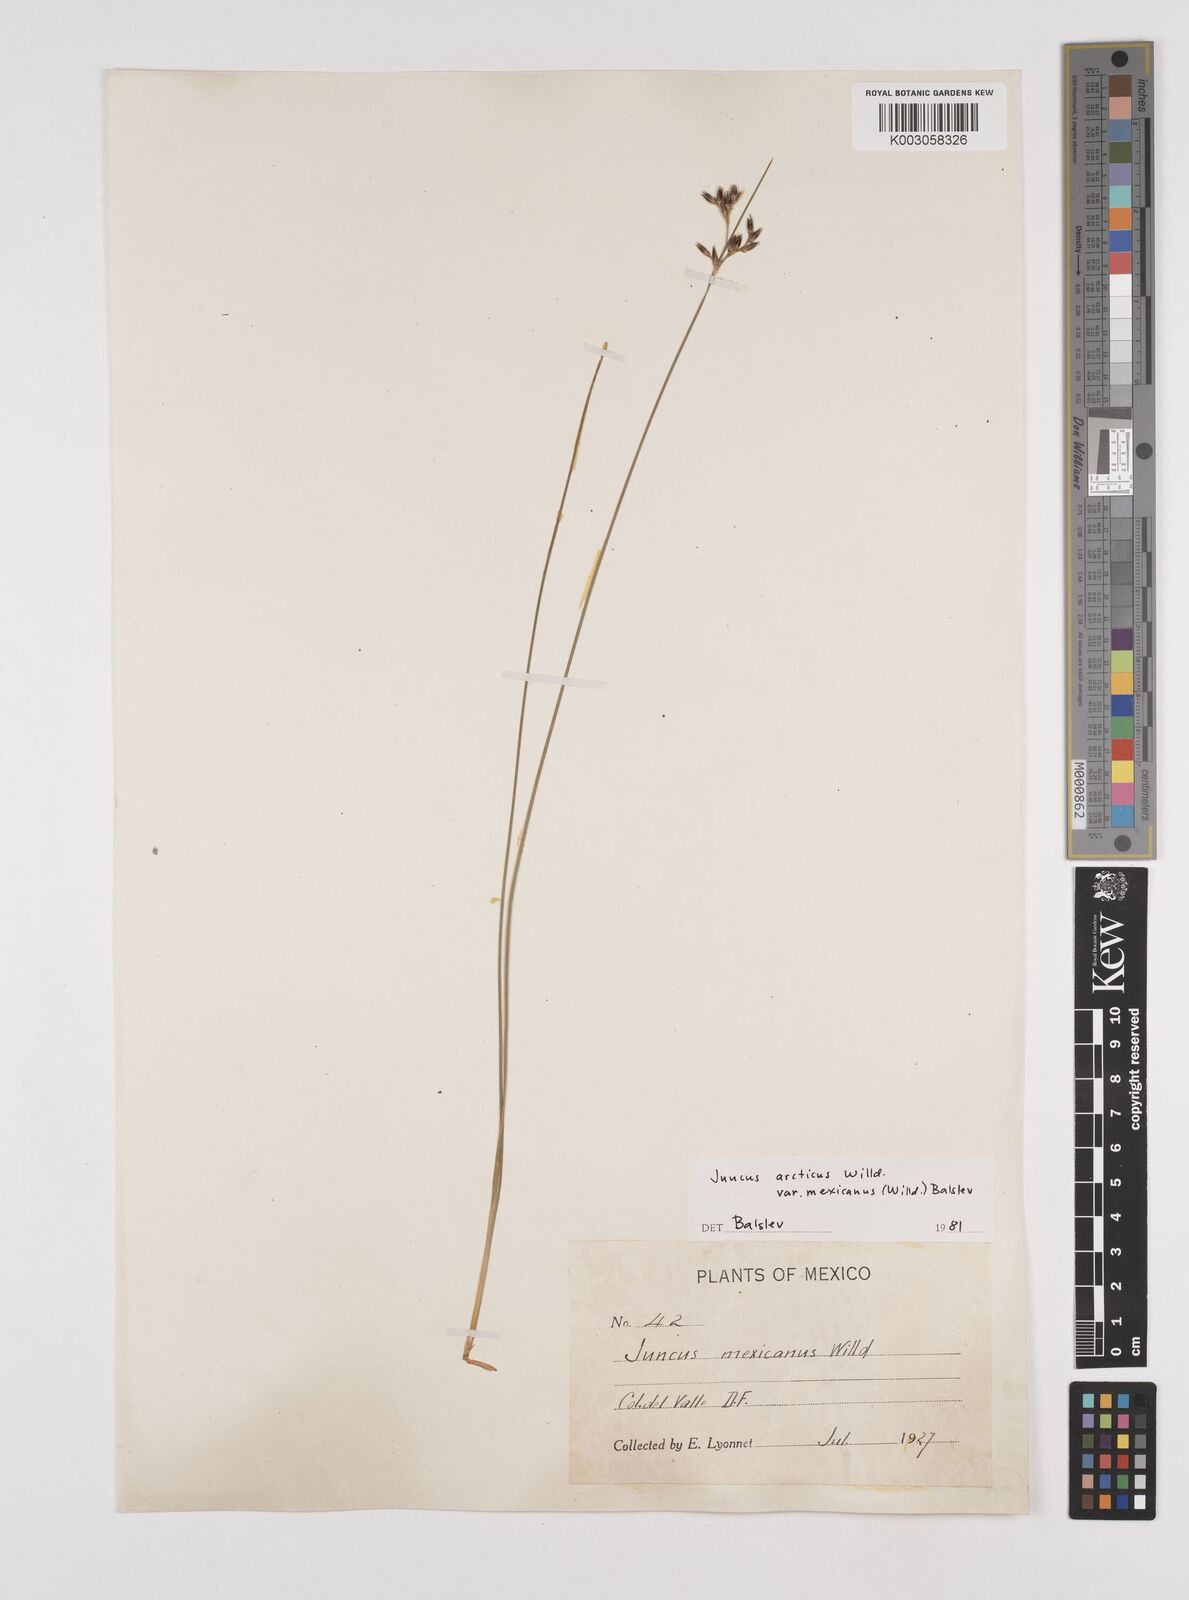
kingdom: Plantae
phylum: Tracheophyta
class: Liliopsida
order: Poales
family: Juncaceae
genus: Juncus
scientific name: Juncus arcticus
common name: Arctic rush
